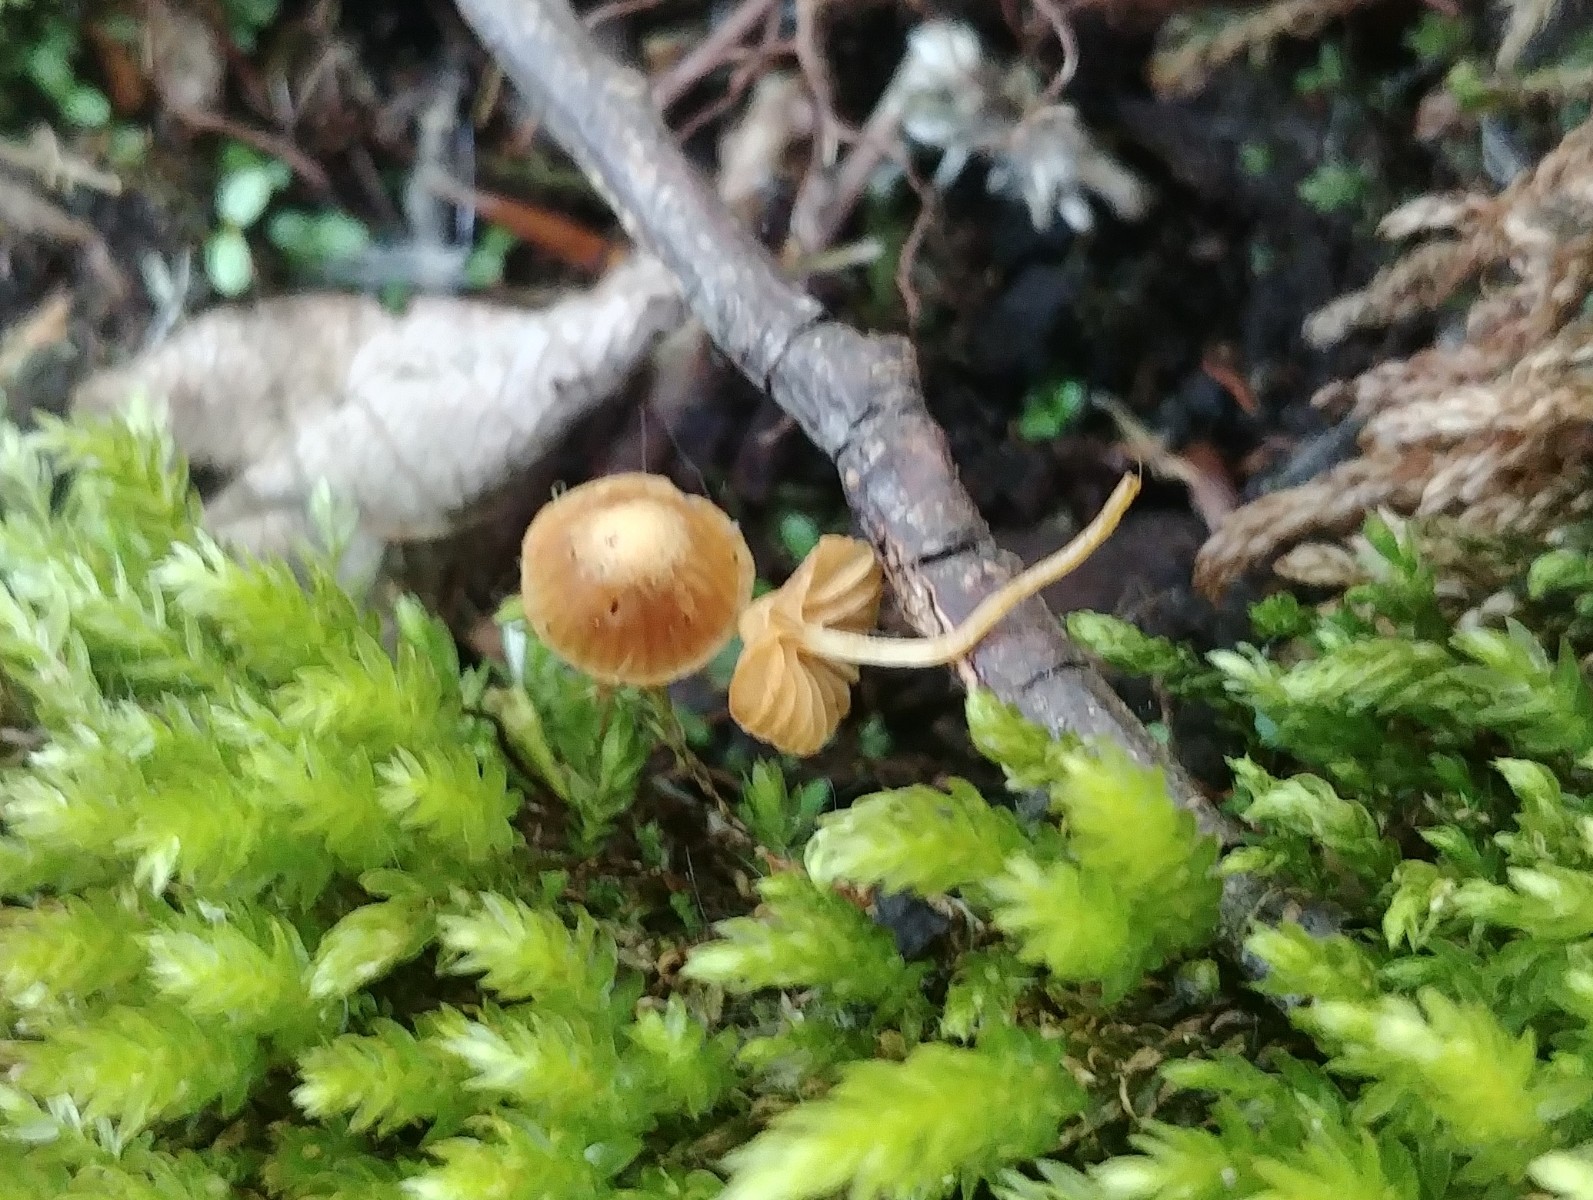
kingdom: Fungi
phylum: Basidiomycota
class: Agaricomycetes
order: Agaricales
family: Hymenogastraceae
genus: Galerina
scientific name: Galerina hypnorum
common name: mos-hjelmhat
